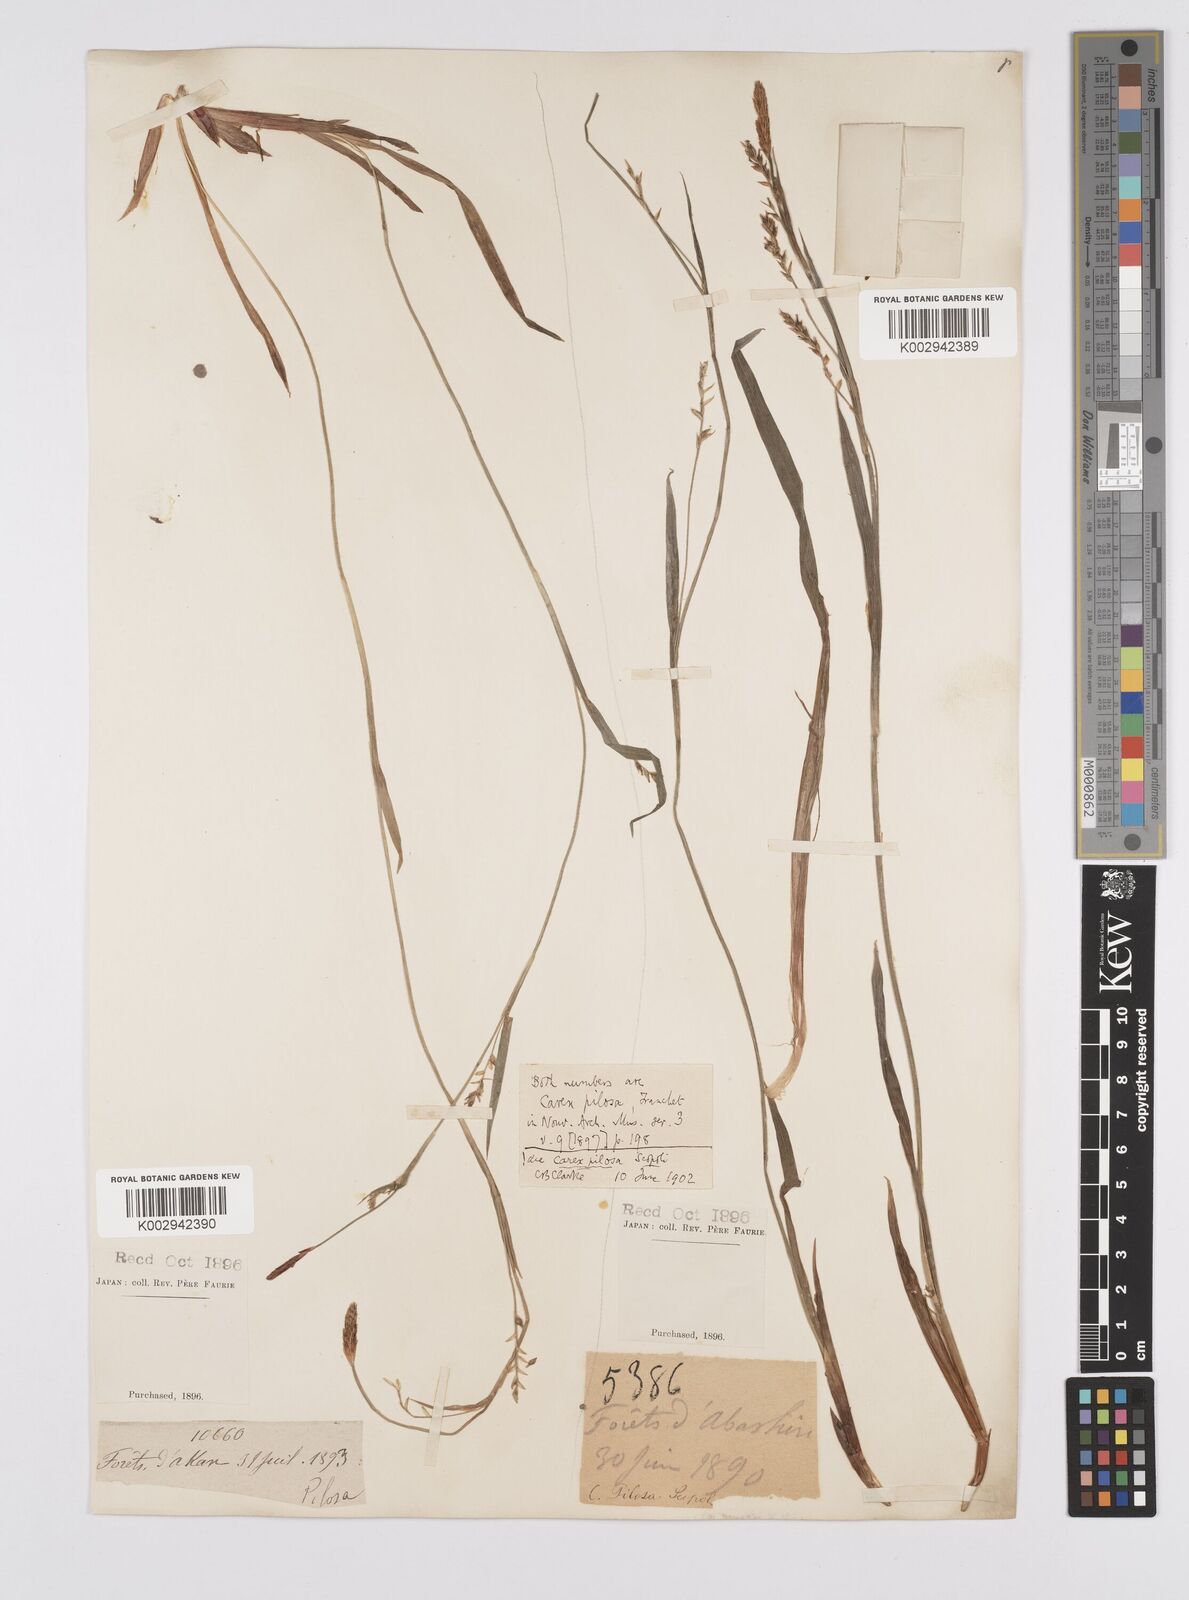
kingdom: Plantae
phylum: Tracheophyta
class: Liliopsida
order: Poales
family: Cyperaceae
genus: Carex
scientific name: Carex pilosa
